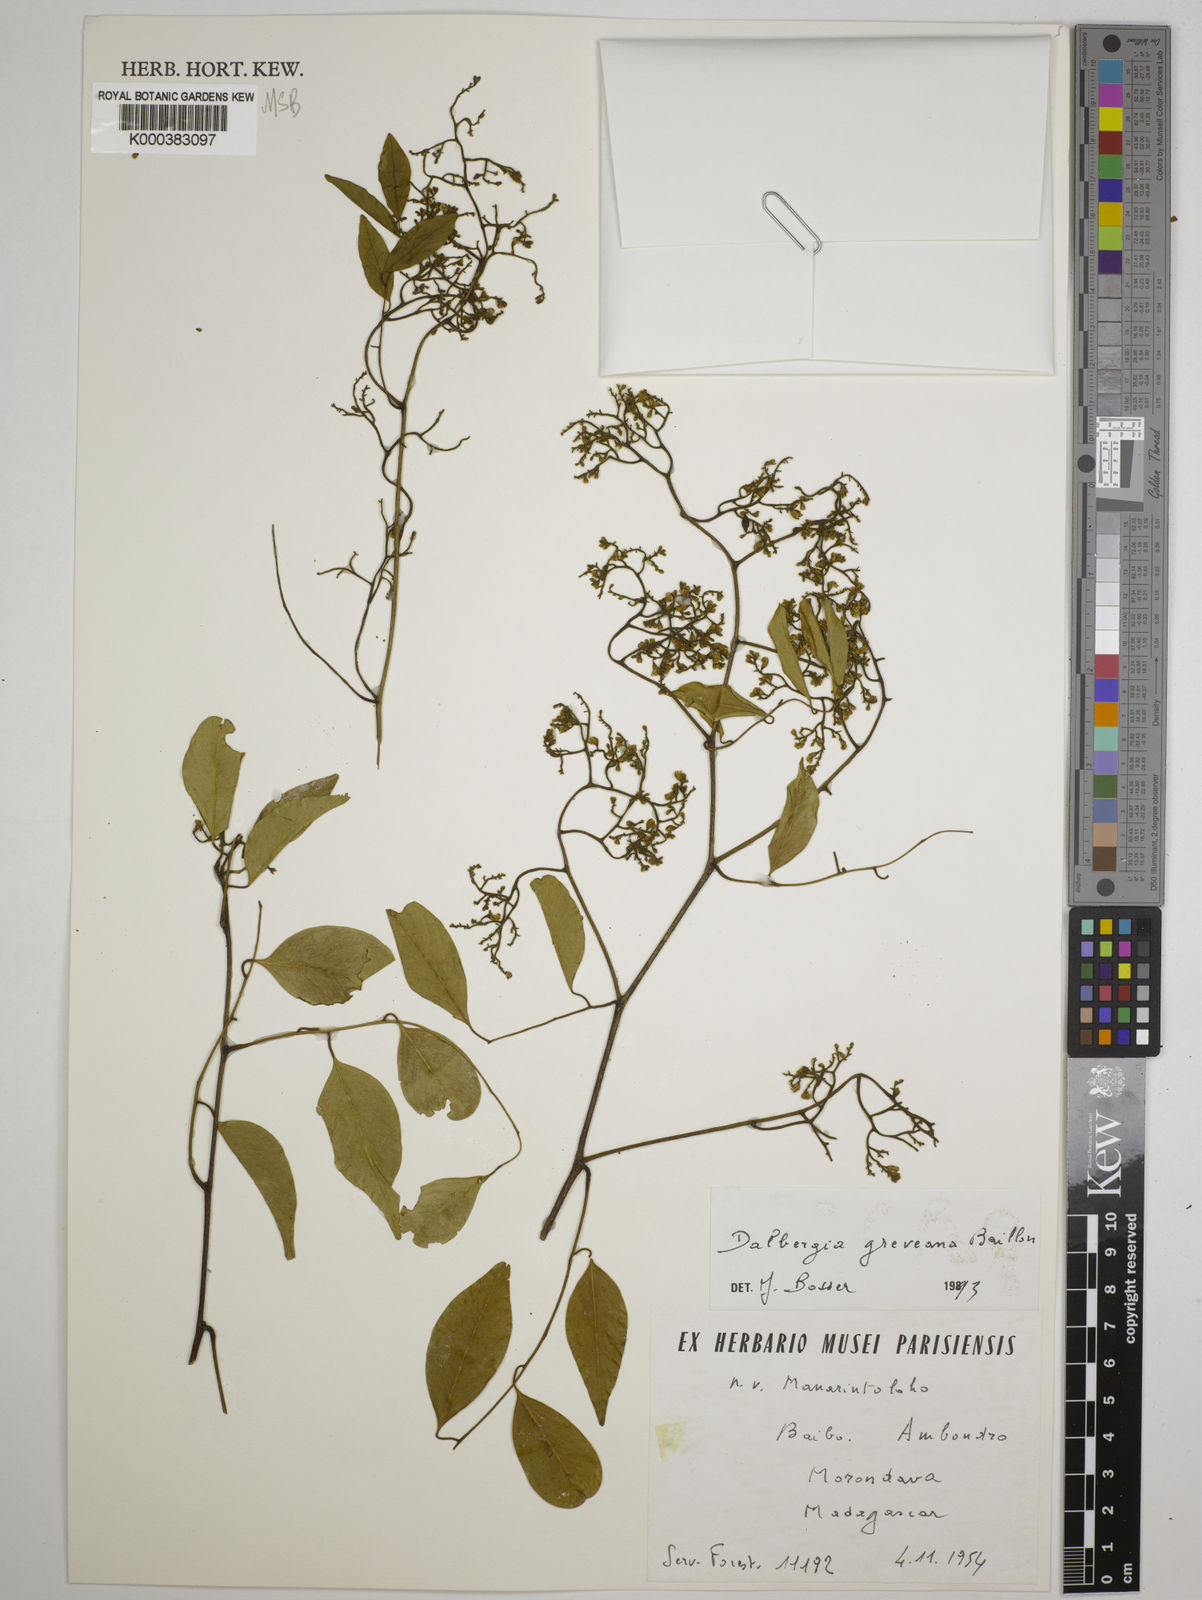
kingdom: Plantae
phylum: Tracheophyta
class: Magnoliopsida
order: Fabales
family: Fabaceae
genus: Dalbergia
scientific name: Dalbergia greveana
